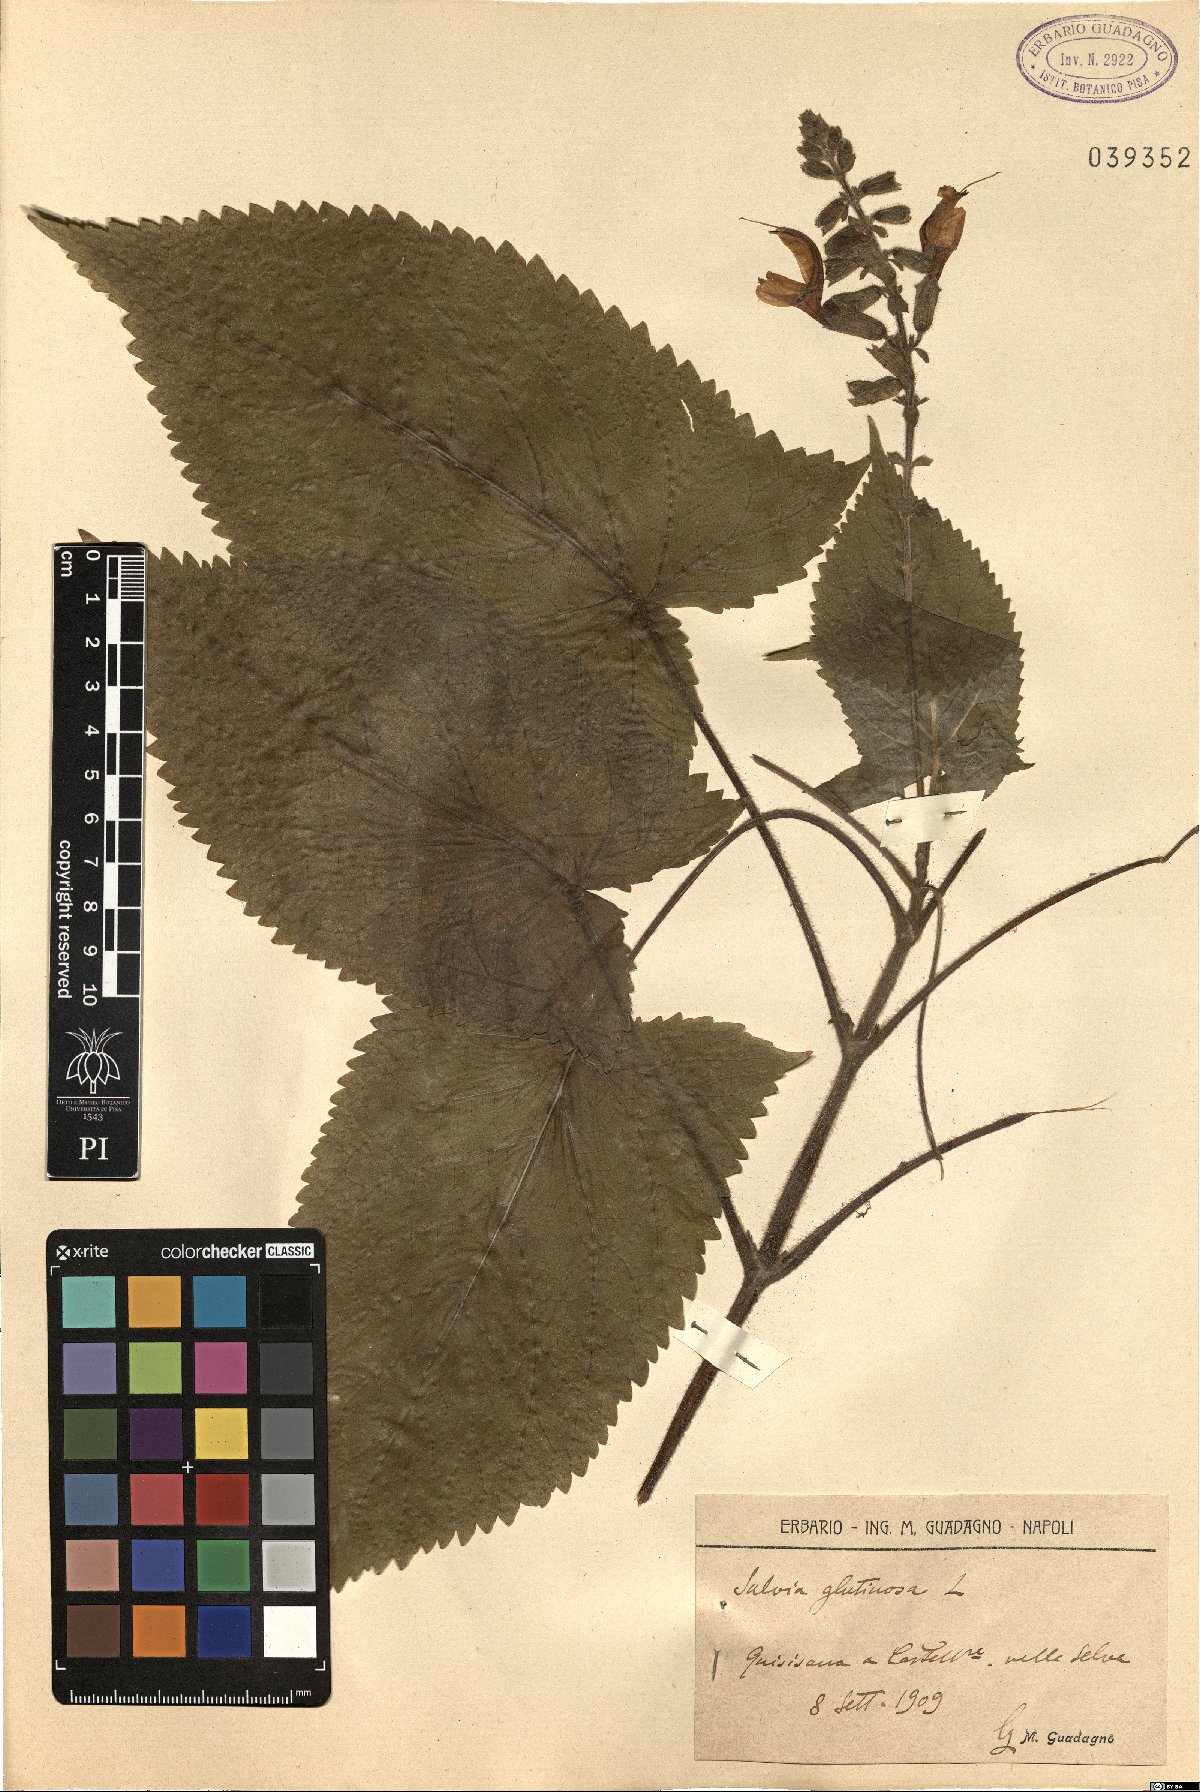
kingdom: Plantae
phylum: Tracheophyta
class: Magnoliopsida
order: Lamiales
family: Lamiaceae
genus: Salvia
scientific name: Salvia glutinosa
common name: Sticky clary
